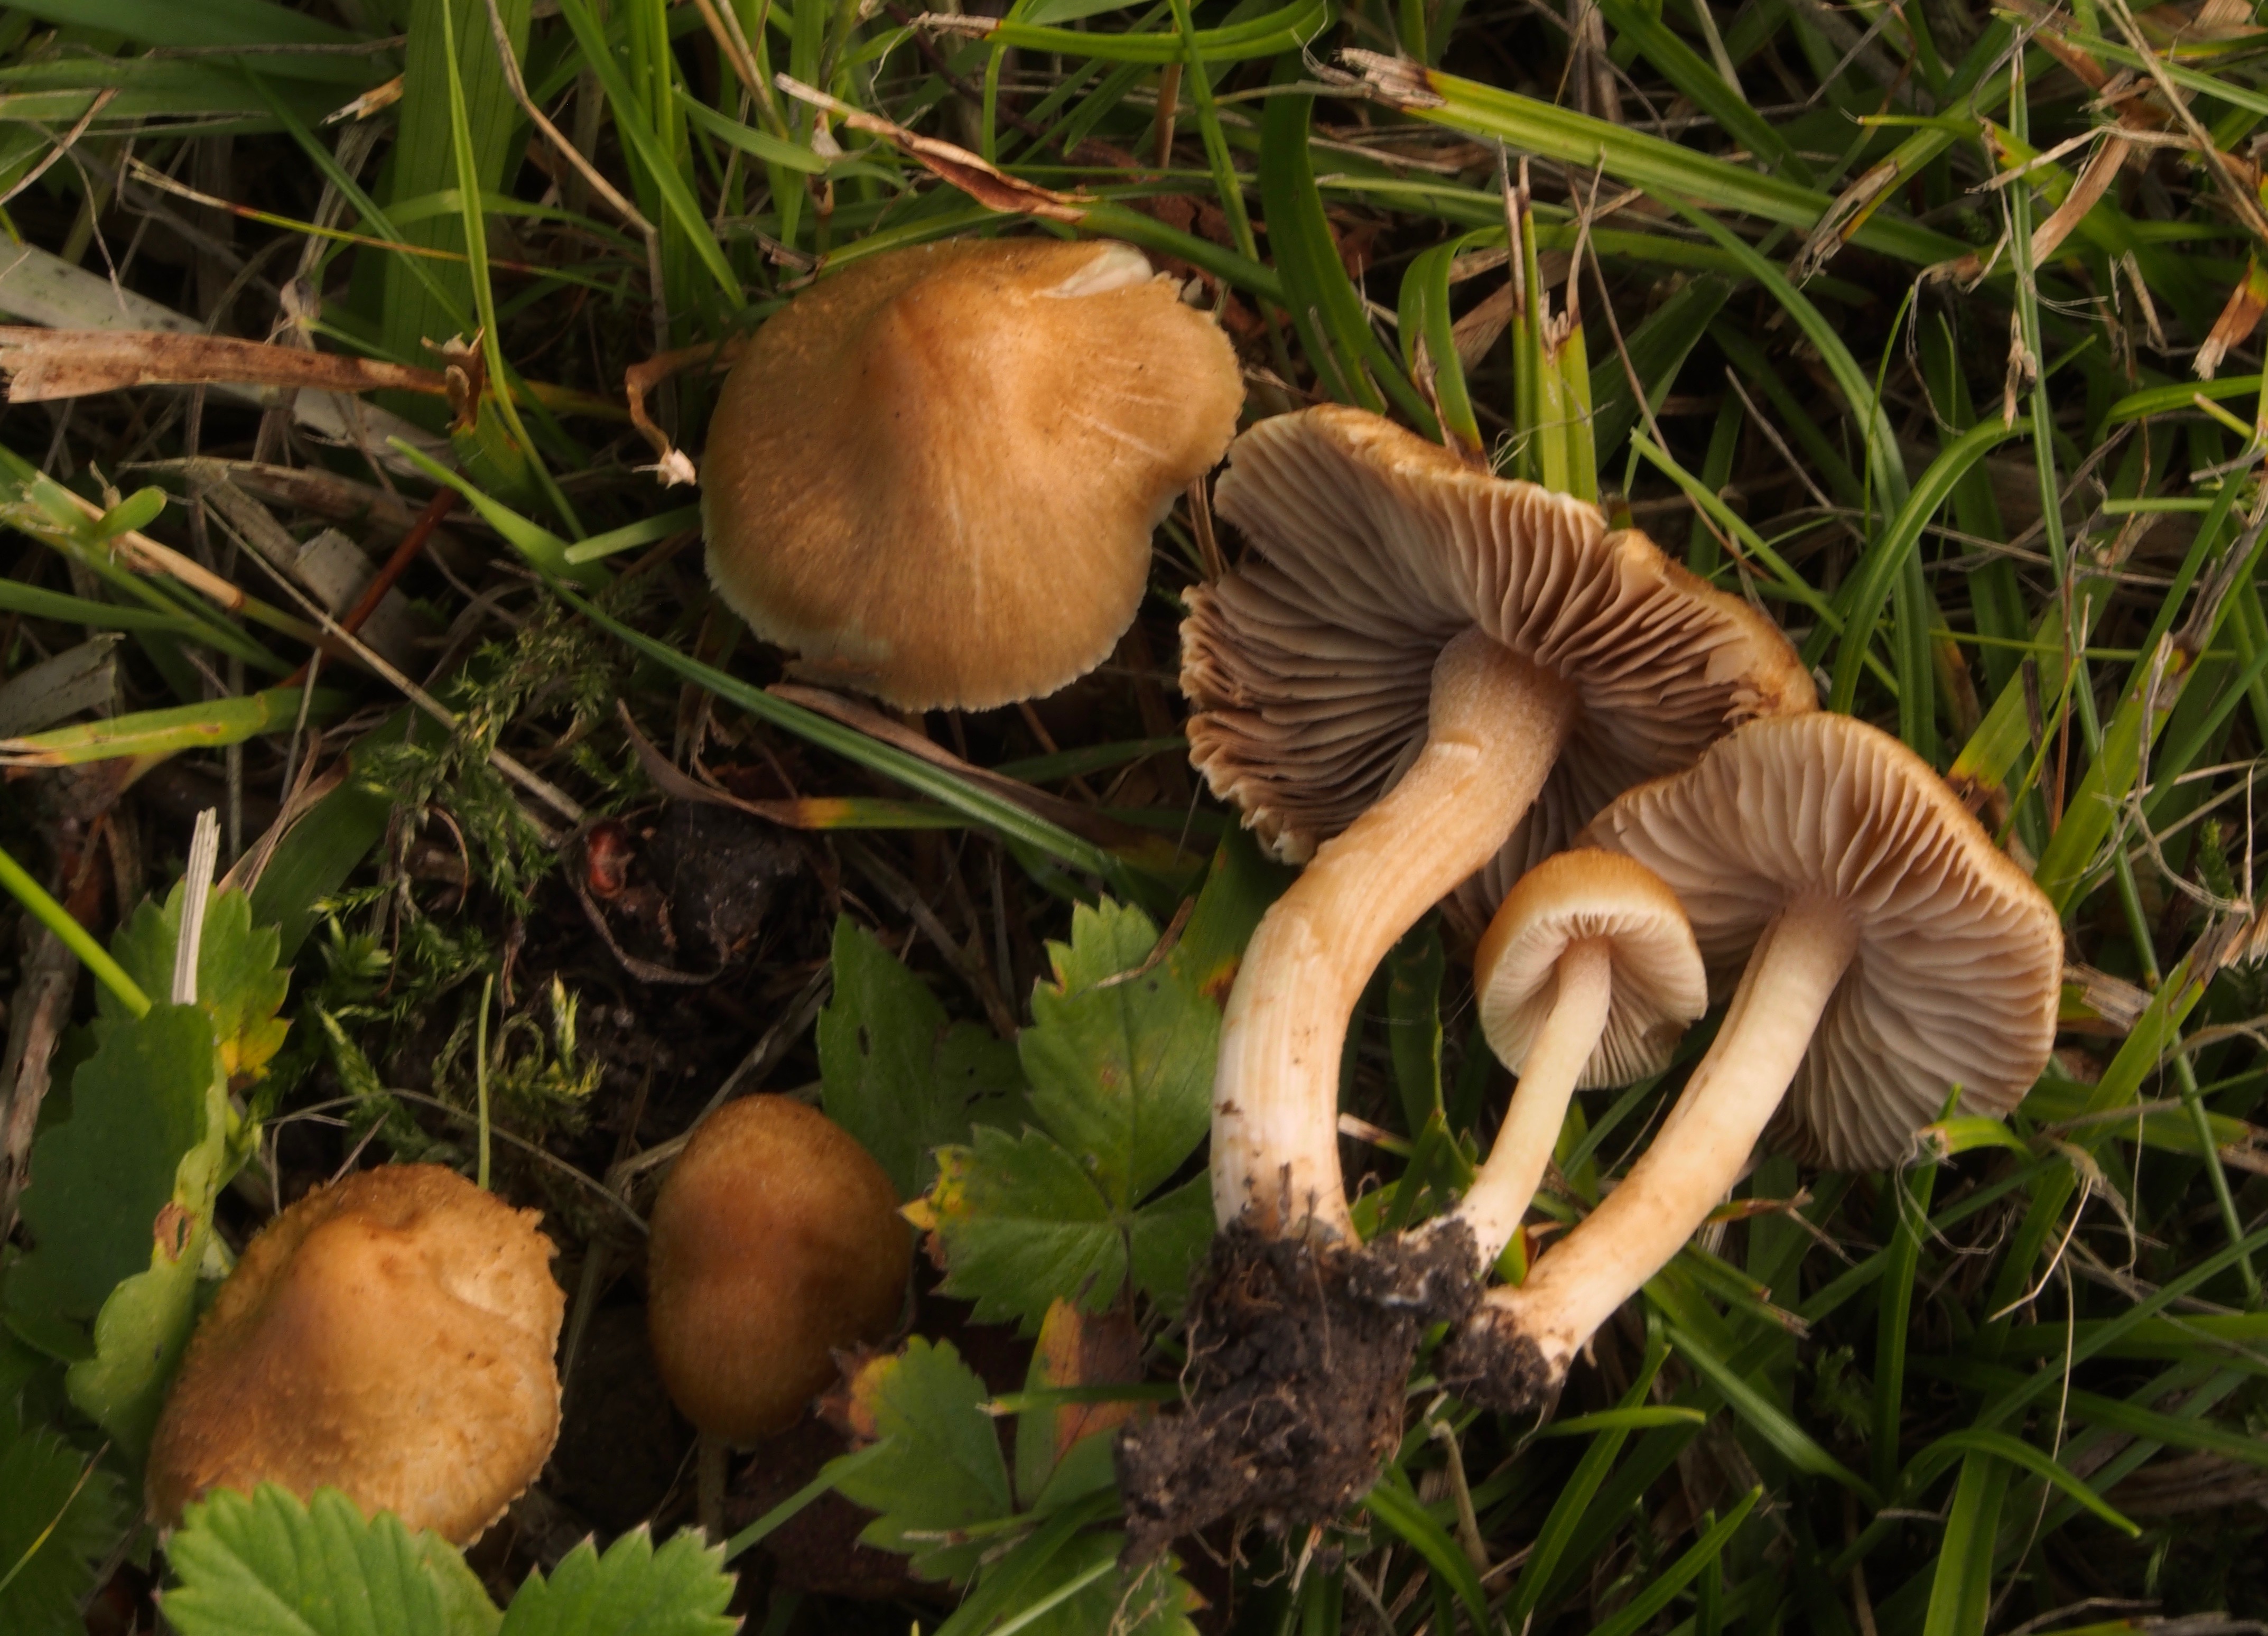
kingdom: Fungi
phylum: Basidiomycota
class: Agaricomycetes
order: Agaricales
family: Inocybaceae
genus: Inocybe
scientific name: Inocybe hirtella
